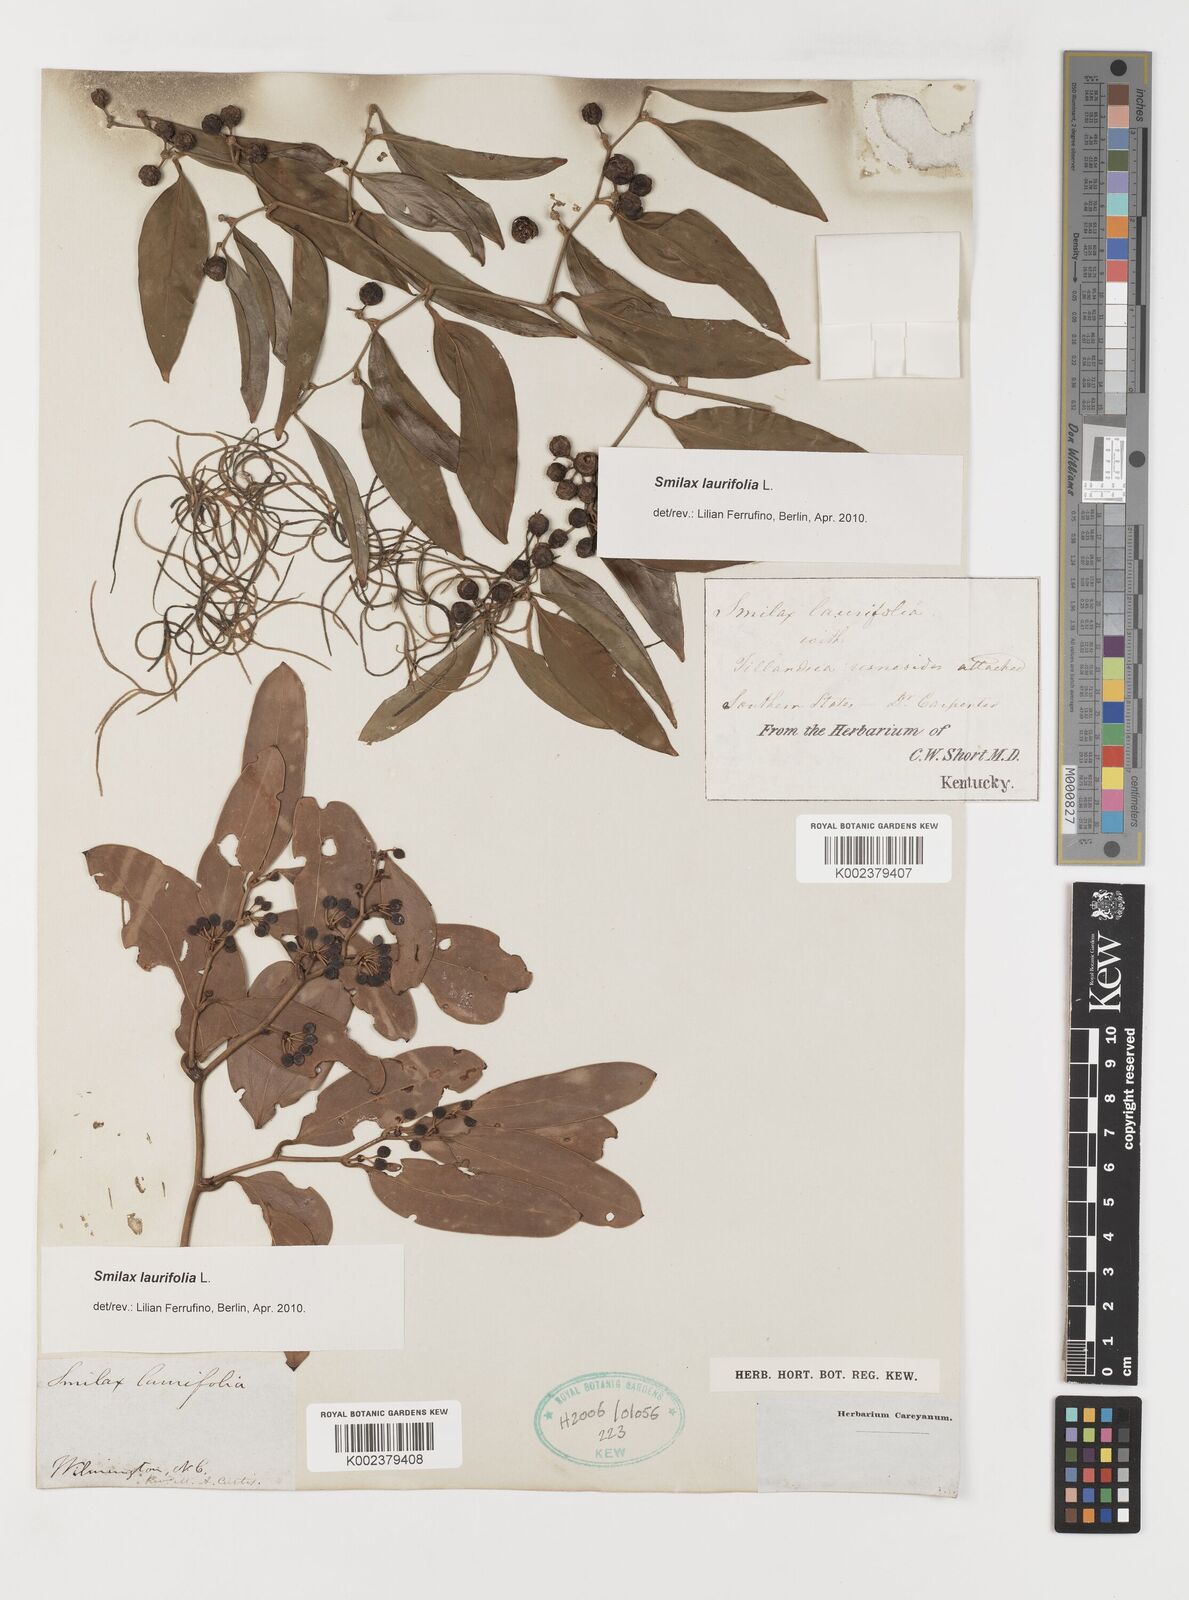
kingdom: Plantae
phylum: Tracheophyta
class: Liliopsida
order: Liliales
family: Smilacaceae
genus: Smilax
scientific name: Smilax laurifolia
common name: Bamboovine
